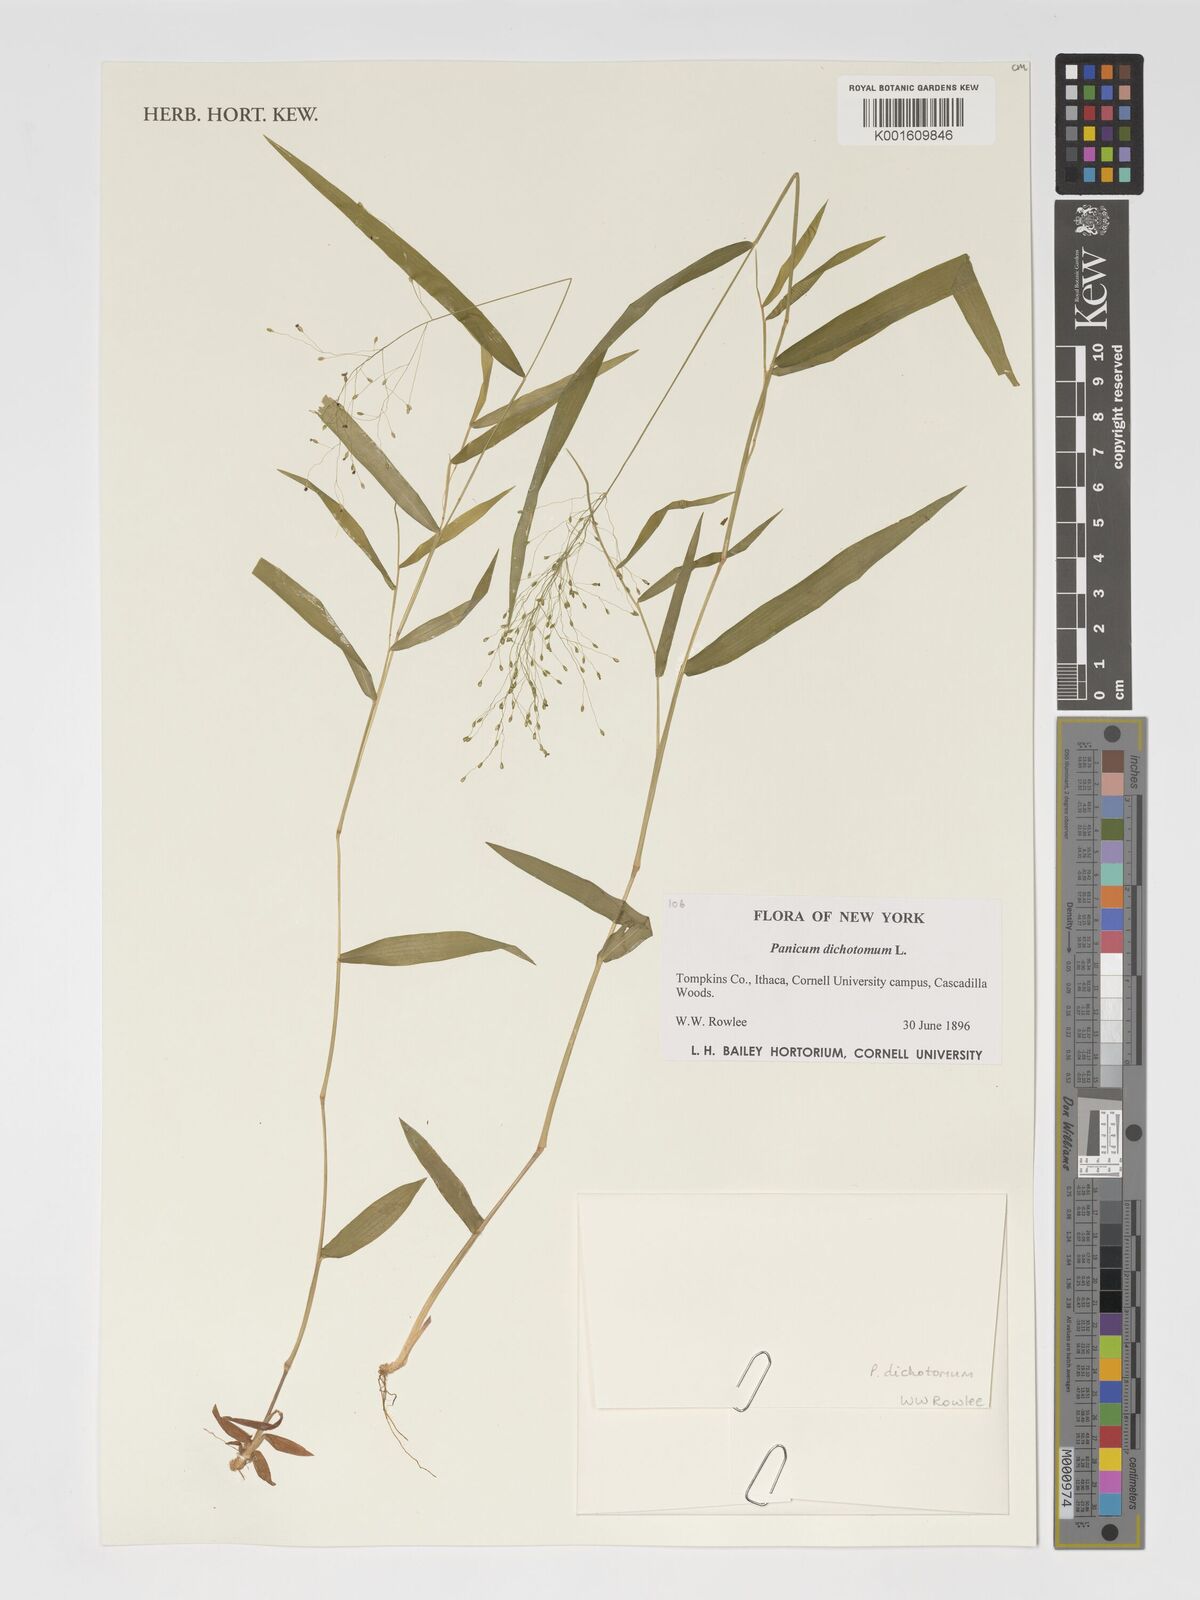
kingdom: Plantae
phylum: Tracheophyta
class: Liliopsida
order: Poales
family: Poaceae
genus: Dichanthelium
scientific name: Dichanthelium dichotomum
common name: Cypress panicgrass
